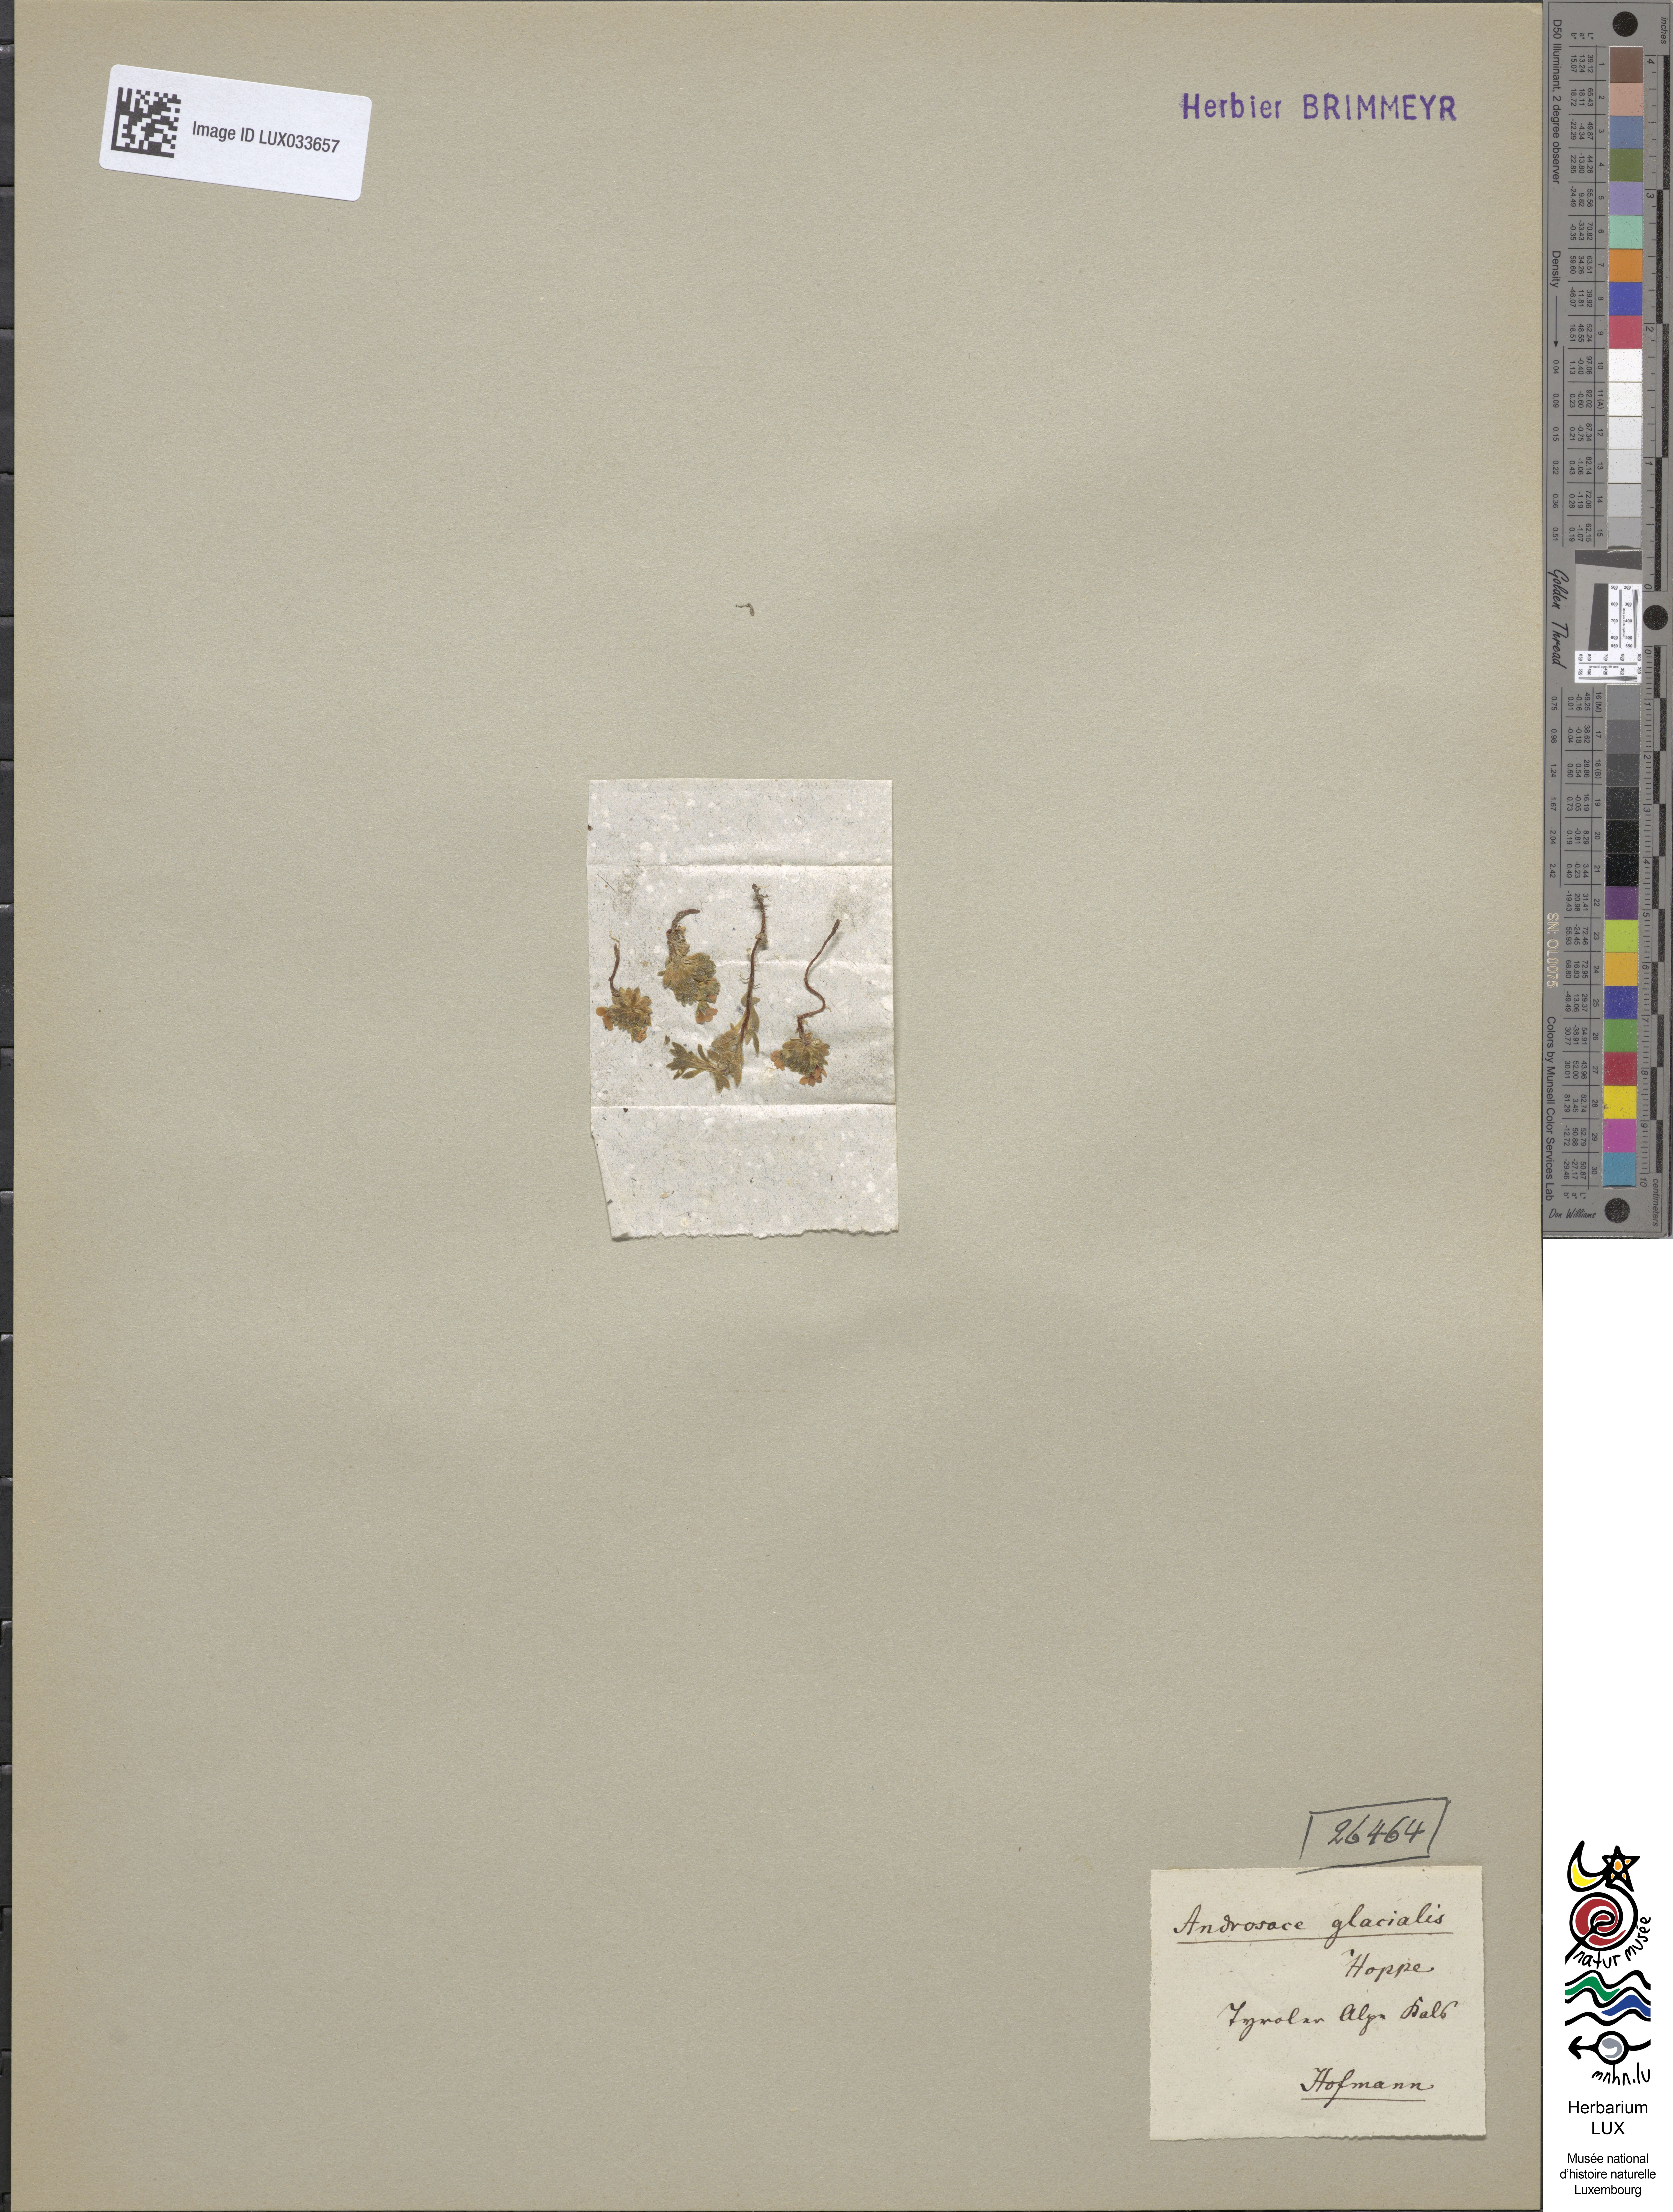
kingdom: Plantae
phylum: Tracheophyta
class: Magnoliopsida
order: Ericales
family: Primulaceae
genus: Androsace
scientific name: Androsace alpina
